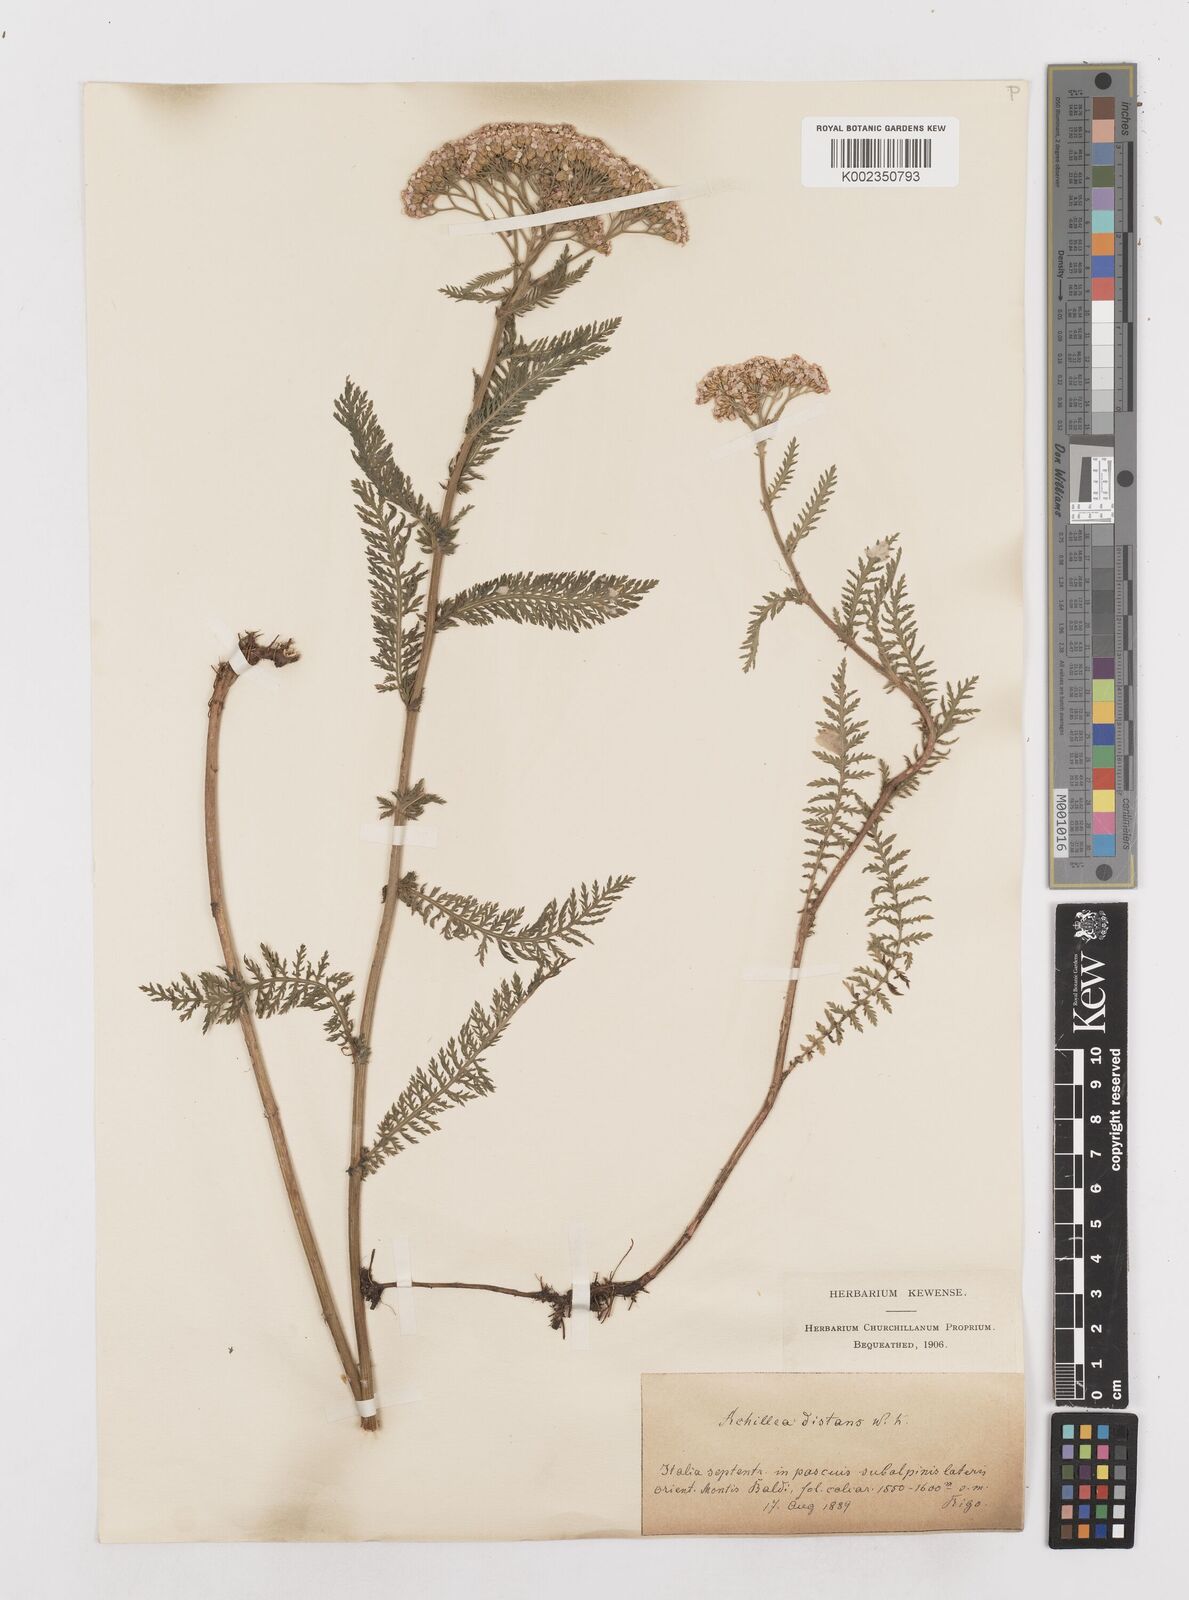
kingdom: Plantae
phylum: Tracheophyta
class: Magnoliopsida
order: Asterales
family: Asteraceae
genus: Achillea
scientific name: Achillea distans
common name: Tall yarrow
